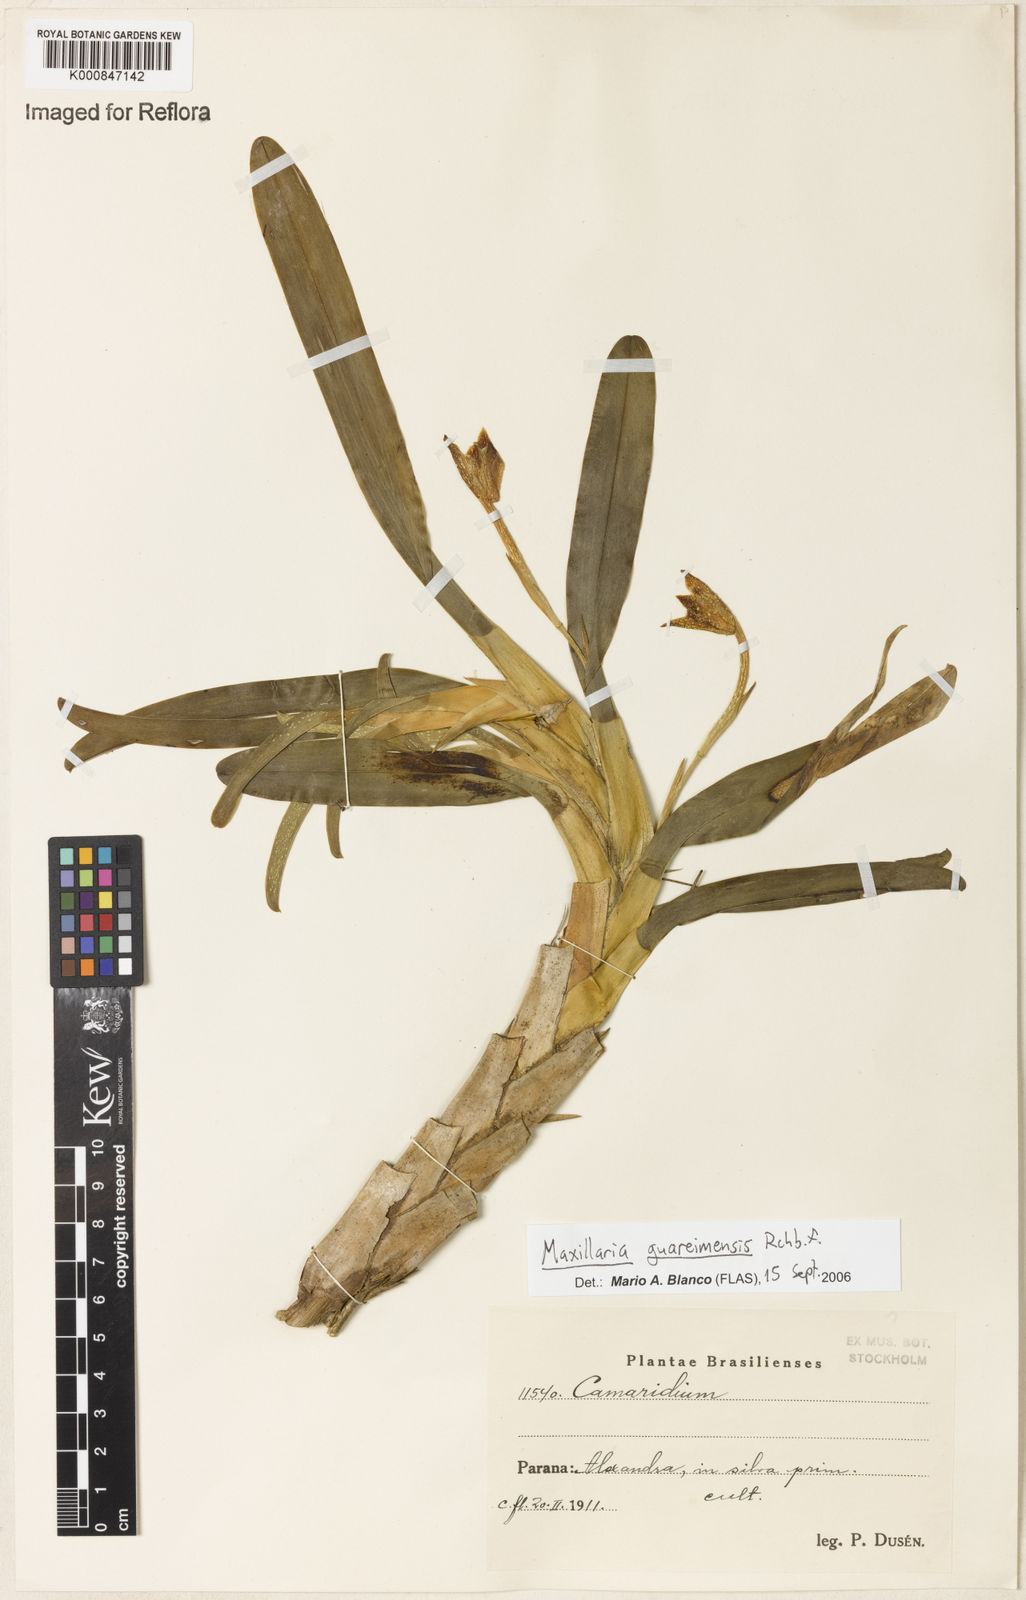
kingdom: Plantae
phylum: Tracheophyta
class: Liliopsida
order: Asparagales
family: Orchidaceae
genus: Maxillaria
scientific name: Maxillaria guareimensis
